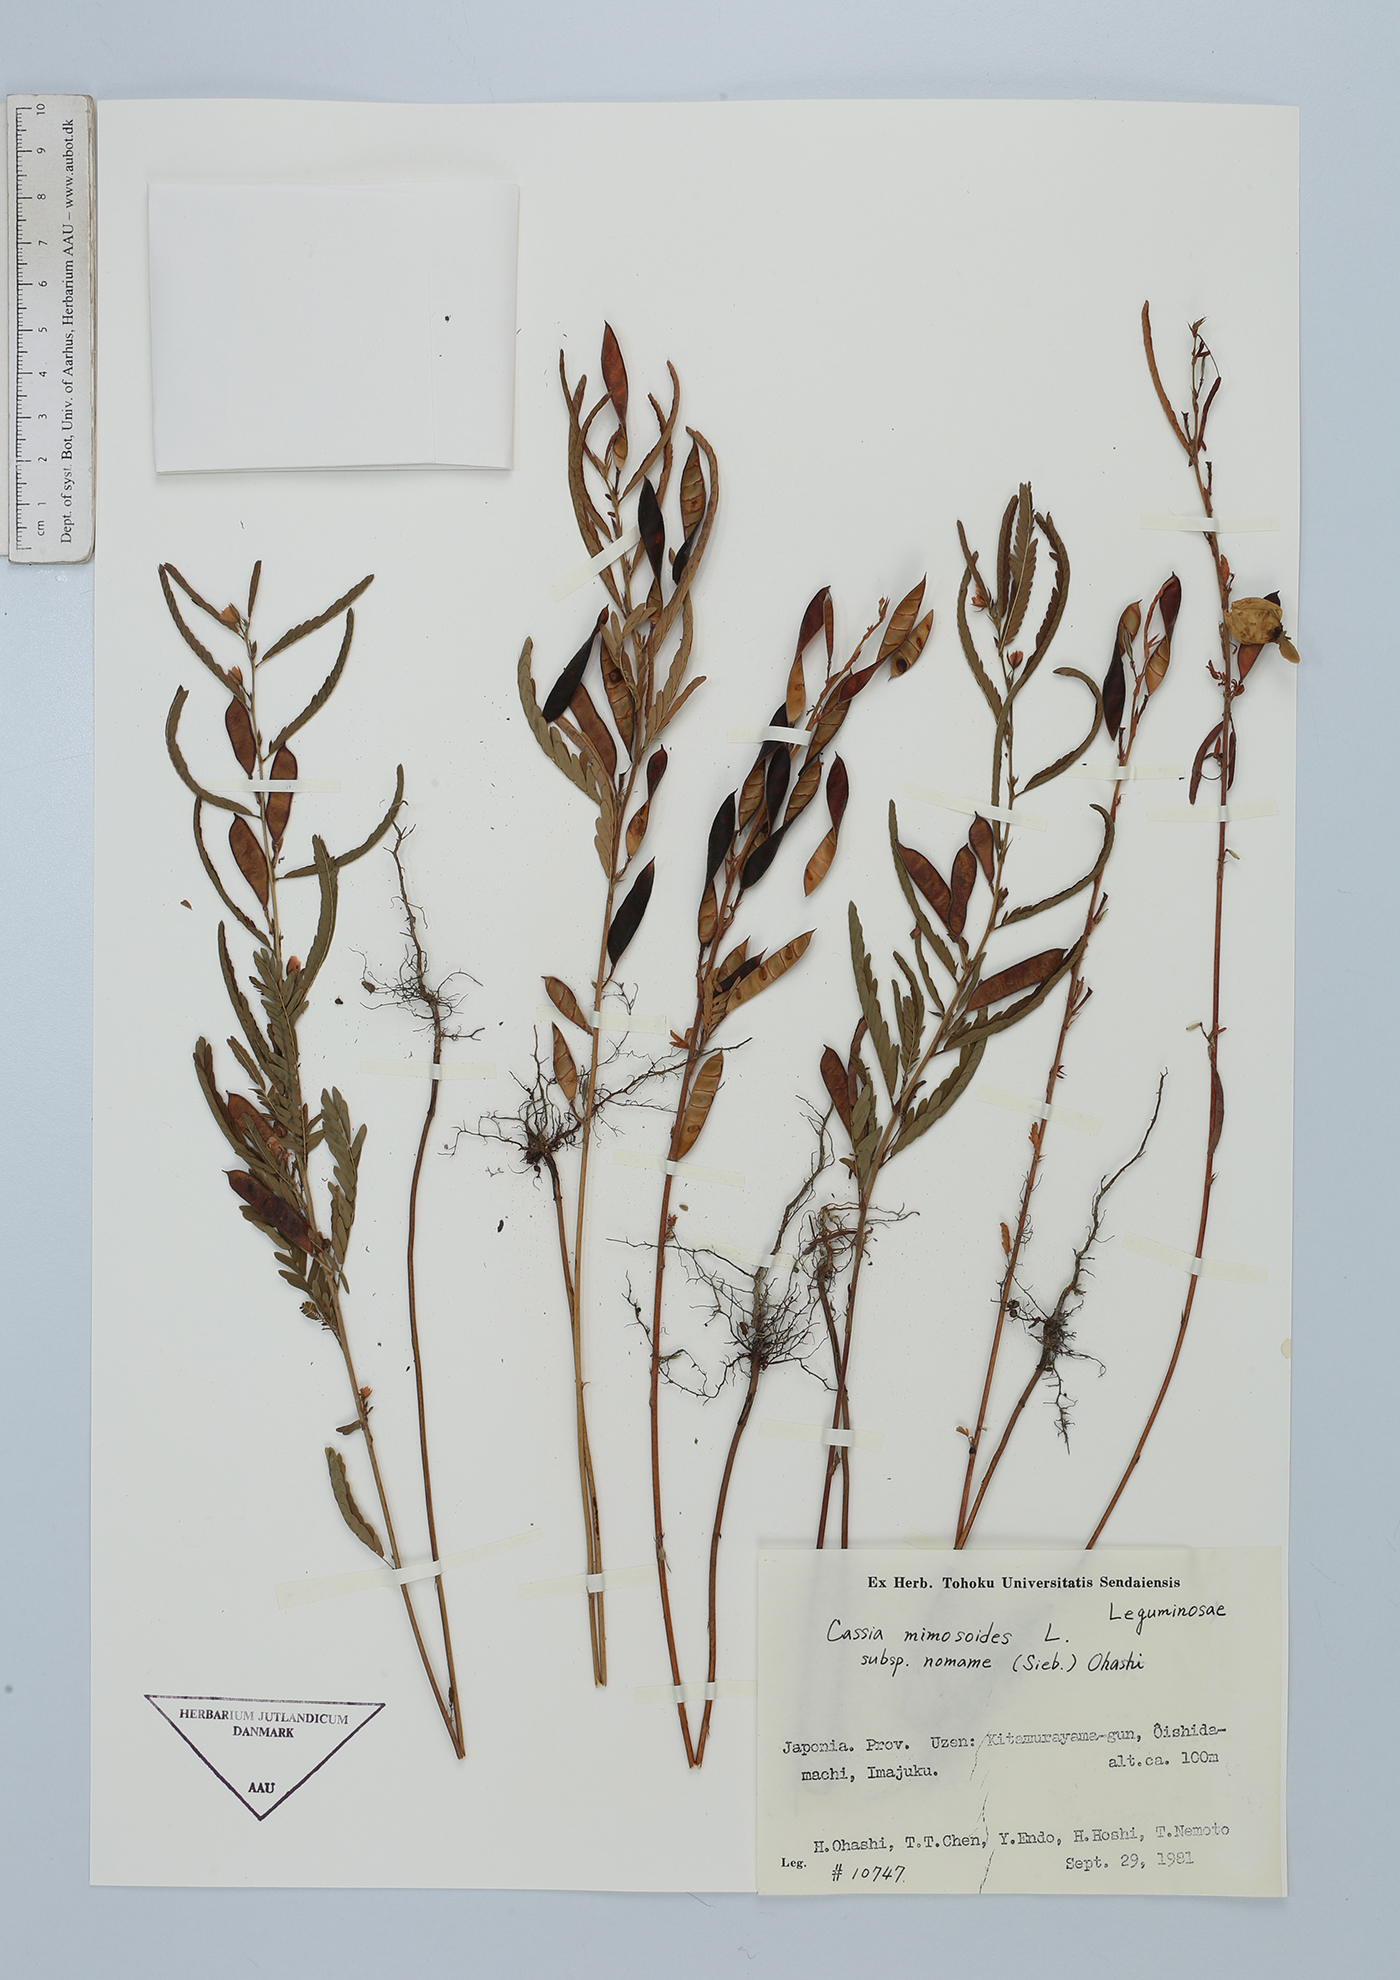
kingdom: Plantae
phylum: Tracheophyta
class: Magnoliopsida
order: Fabales
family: Fabaceae
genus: Chamaecrista
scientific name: Chamaecrista nomame
